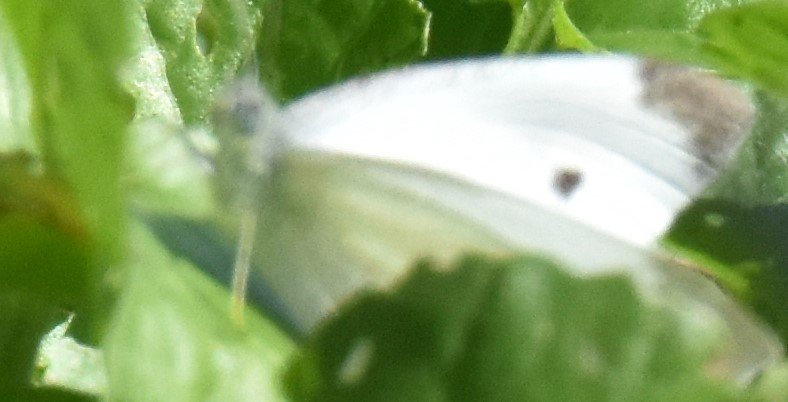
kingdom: Animalia
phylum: Arthropoda
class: Insecta
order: Lepidoptera
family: Pieridae
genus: Pieris
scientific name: Pieris rapae
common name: Cabbage White
